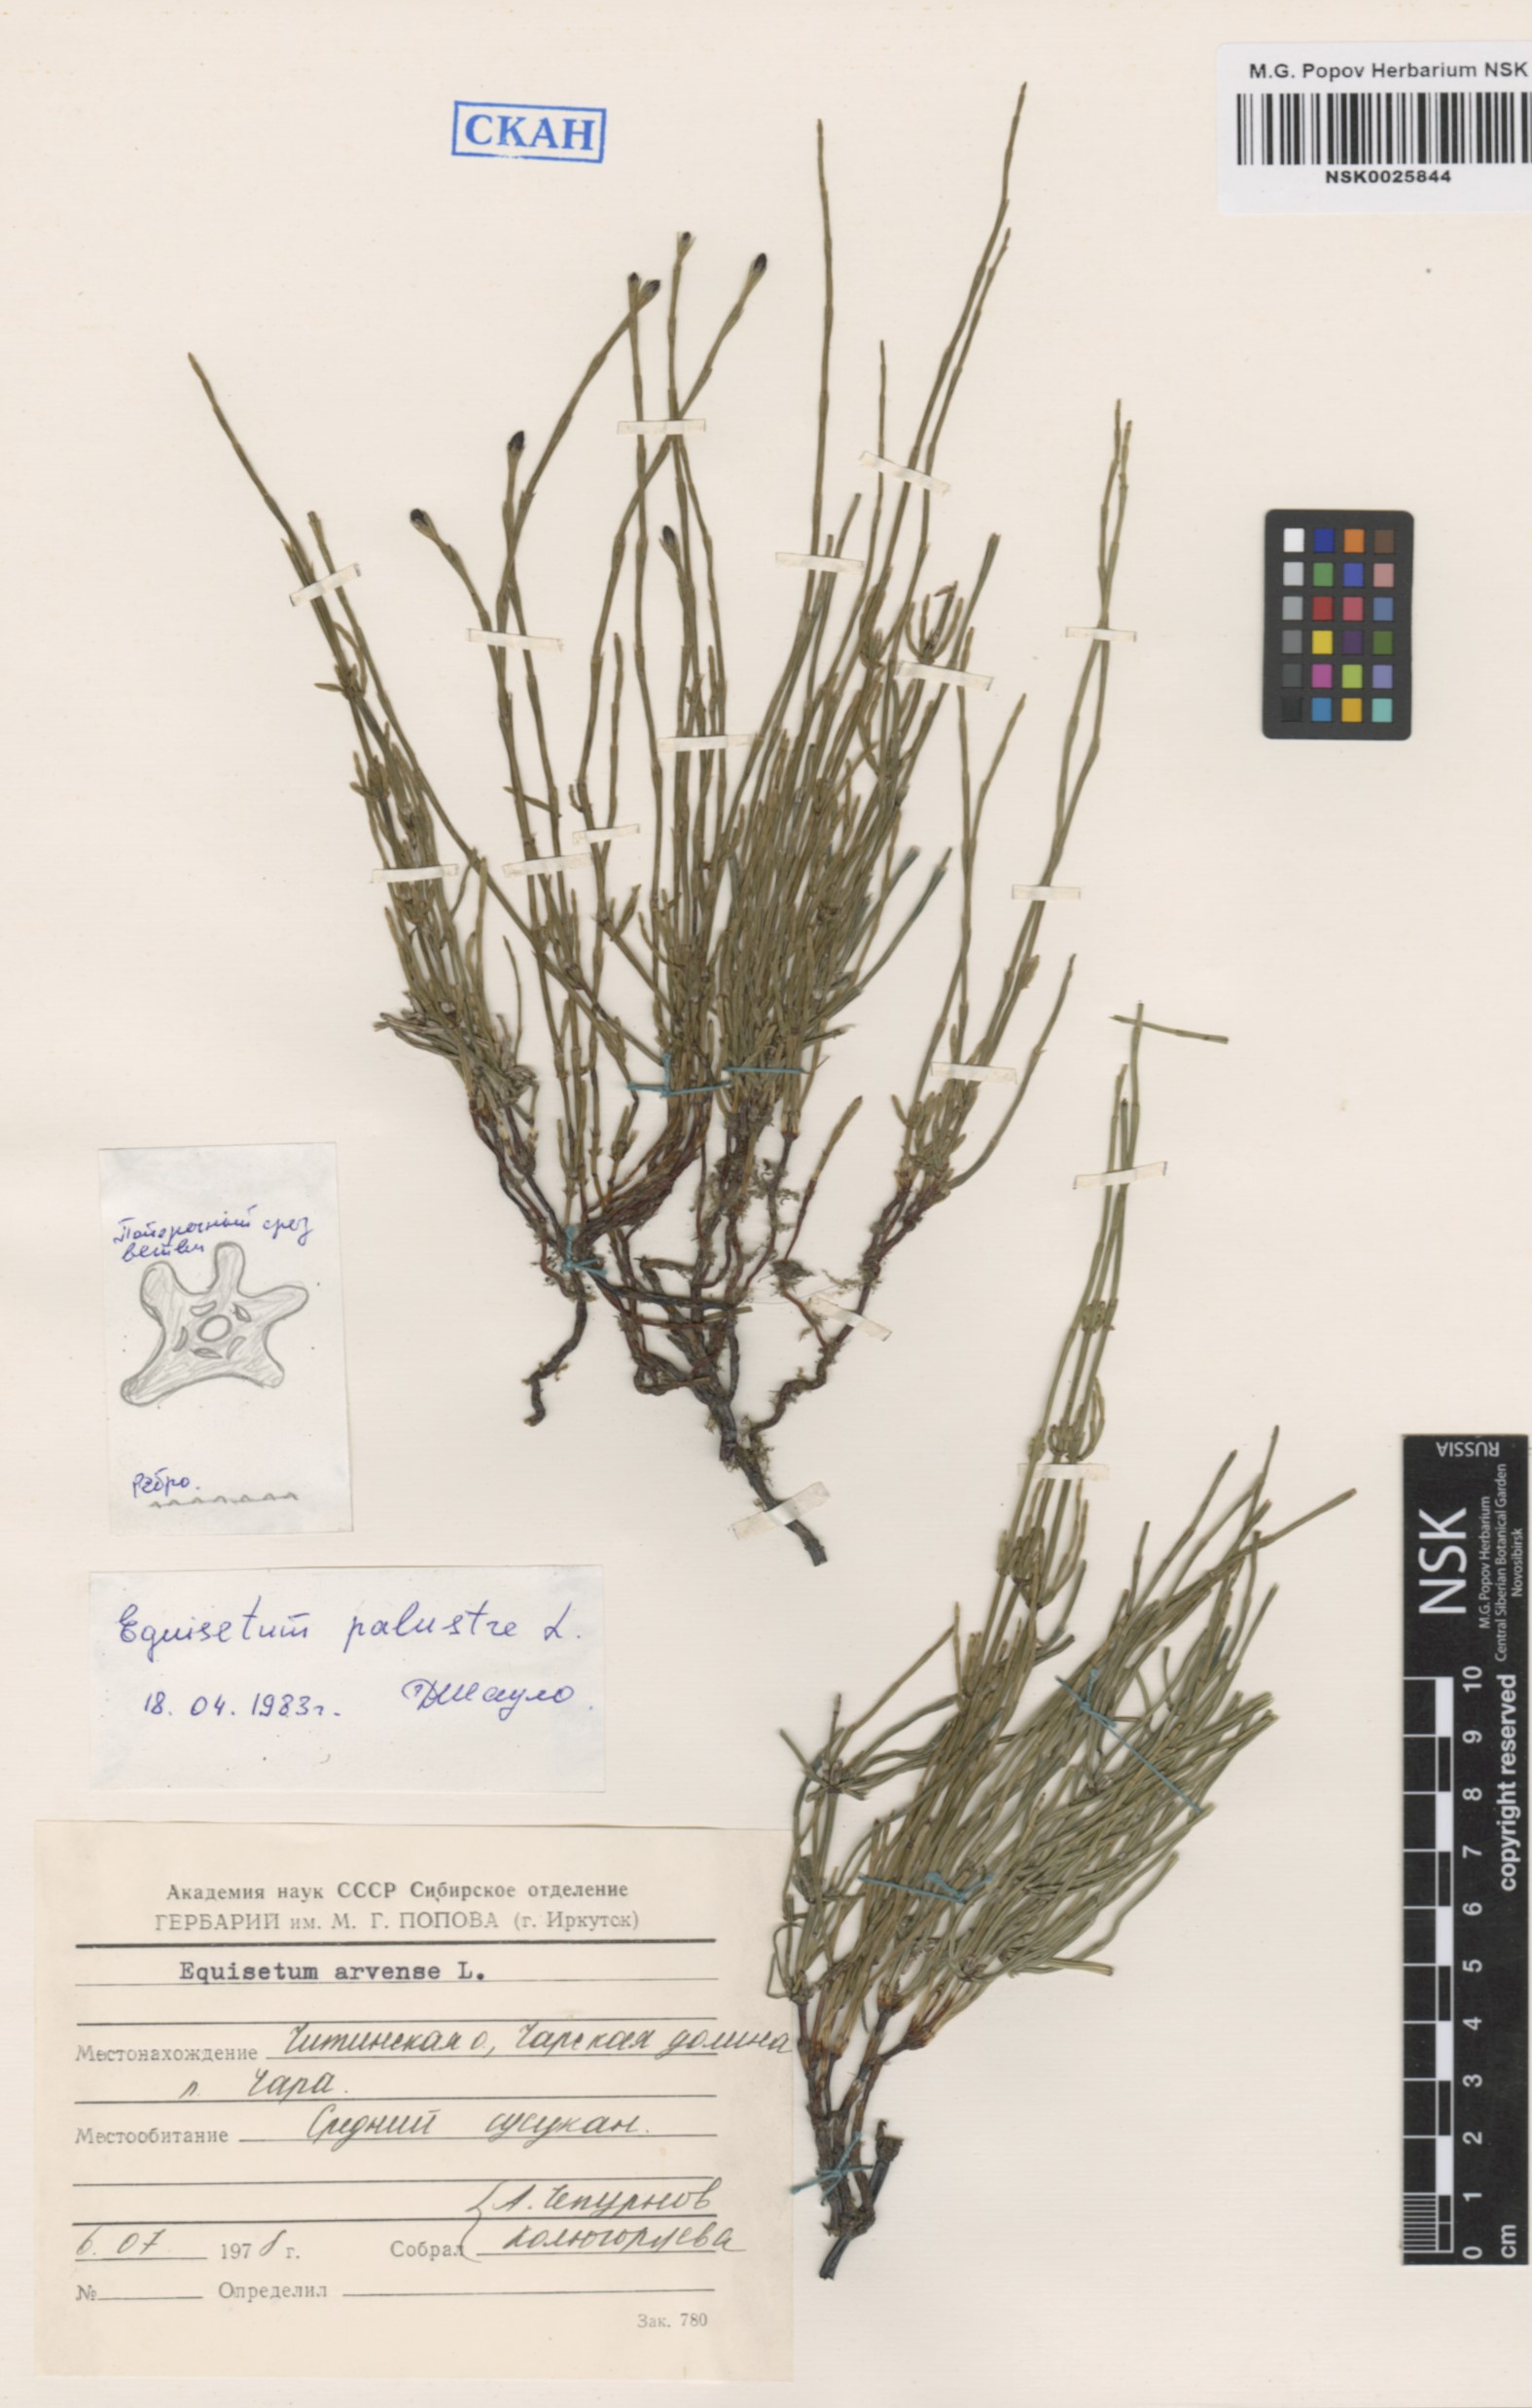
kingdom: Plantae
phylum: Tracheophyta
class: Polypodiopsida
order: Equisetales
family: Equisetaceae
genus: Equisetum
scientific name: Equisetum palustre
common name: Marsh horsetail
